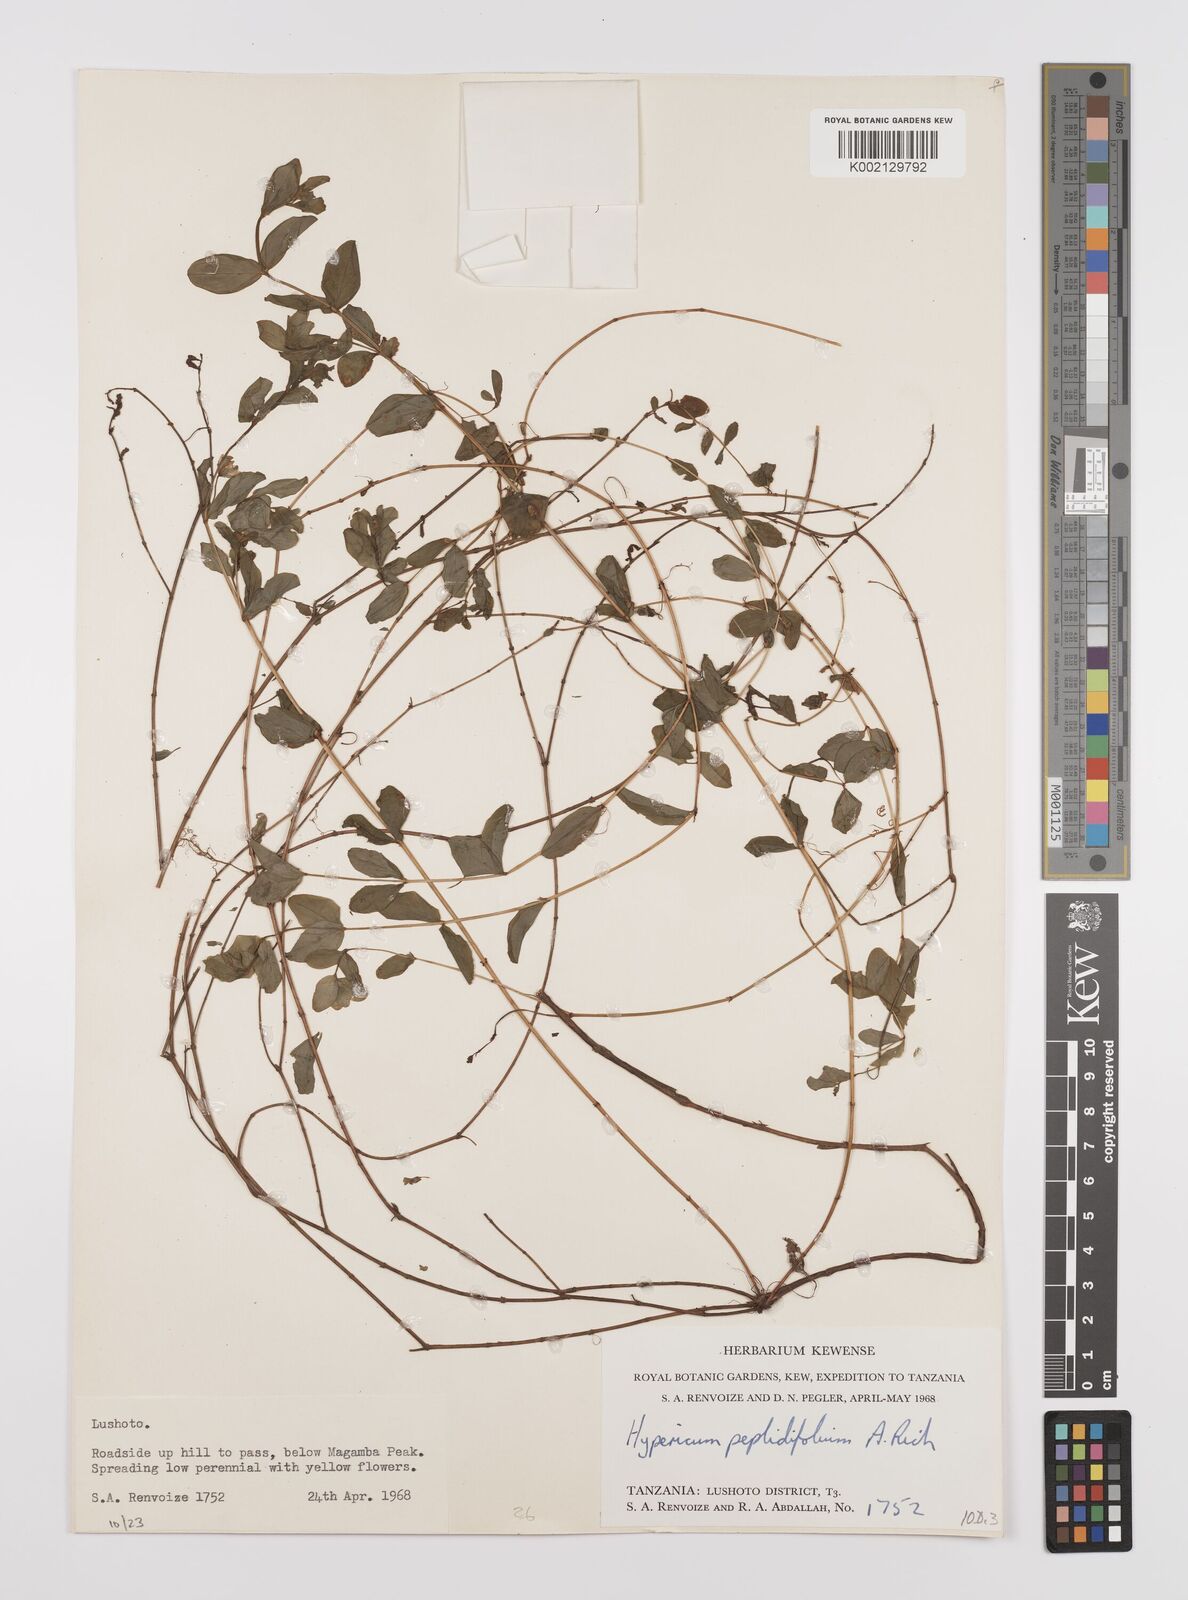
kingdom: Plantae
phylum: Tracheophyta
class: Magnoliopsida
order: Malpighiales
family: Hypericaceae
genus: Hypericum
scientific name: Hypericum peplidifolium
